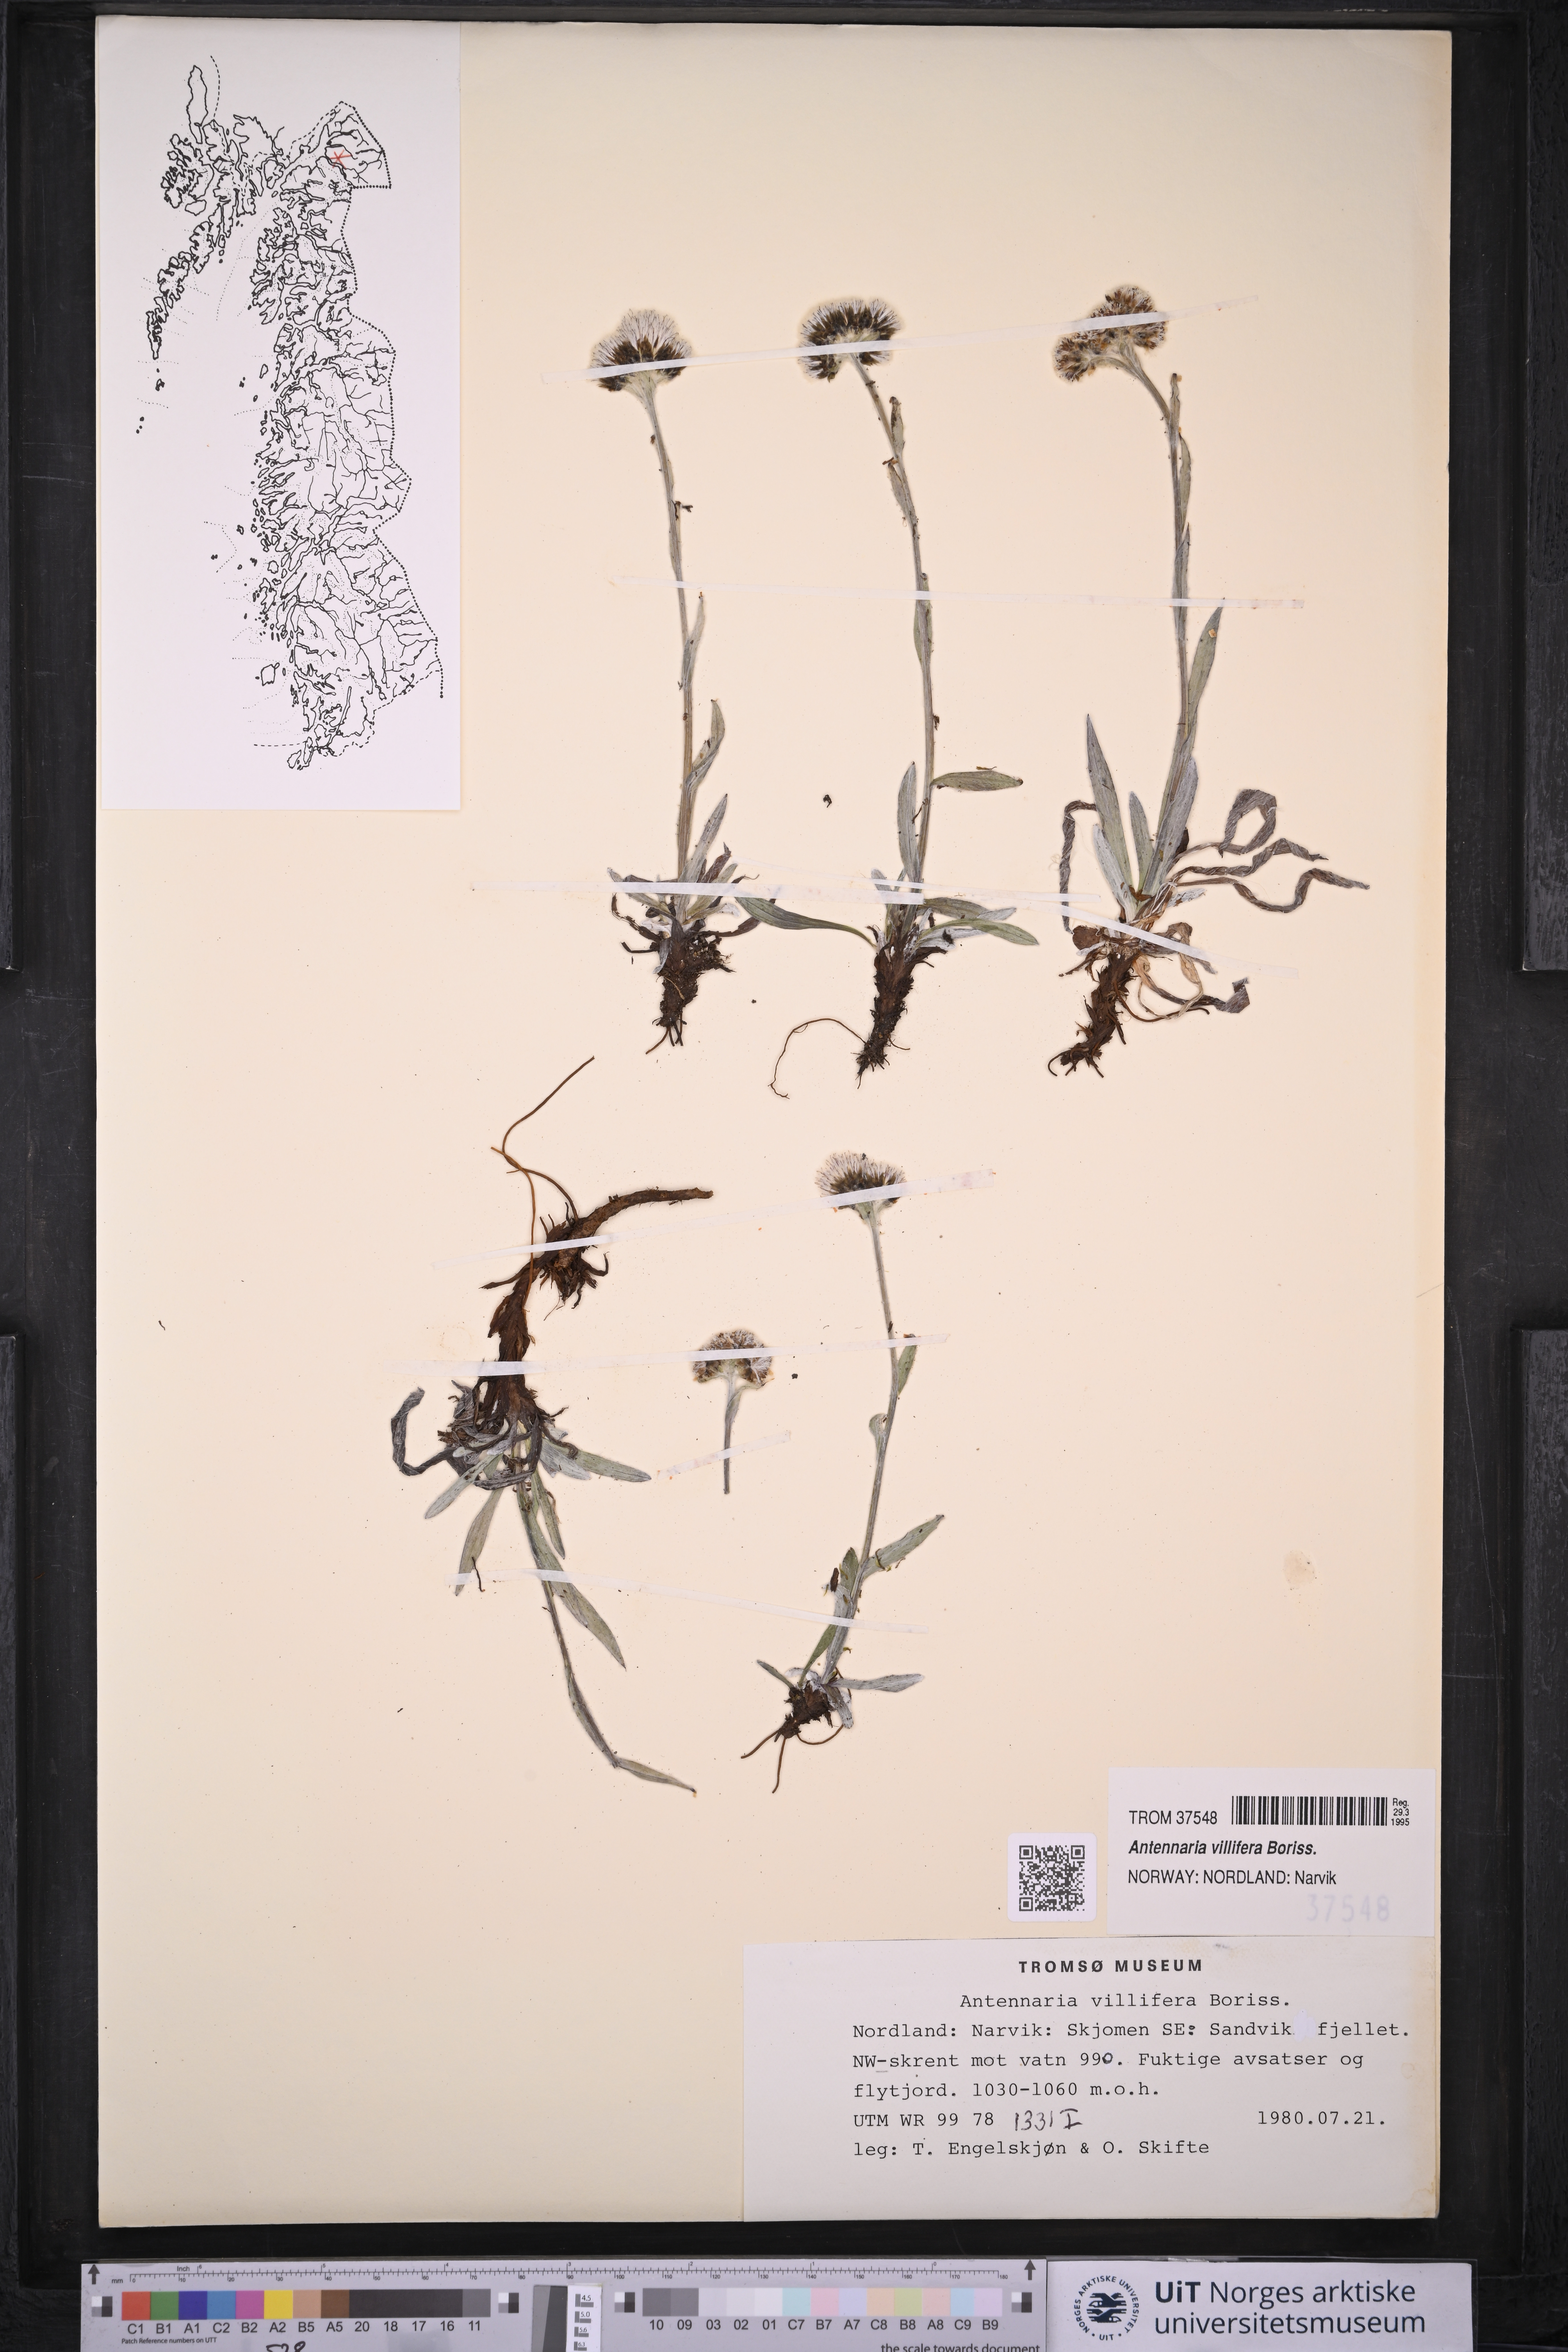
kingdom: Plantae
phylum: Tracheophyta
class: Magnoliopsida
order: Asterales
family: Asteraceae
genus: Antennaria
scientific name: Antennaria lanata
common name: Woolly pussytoes
